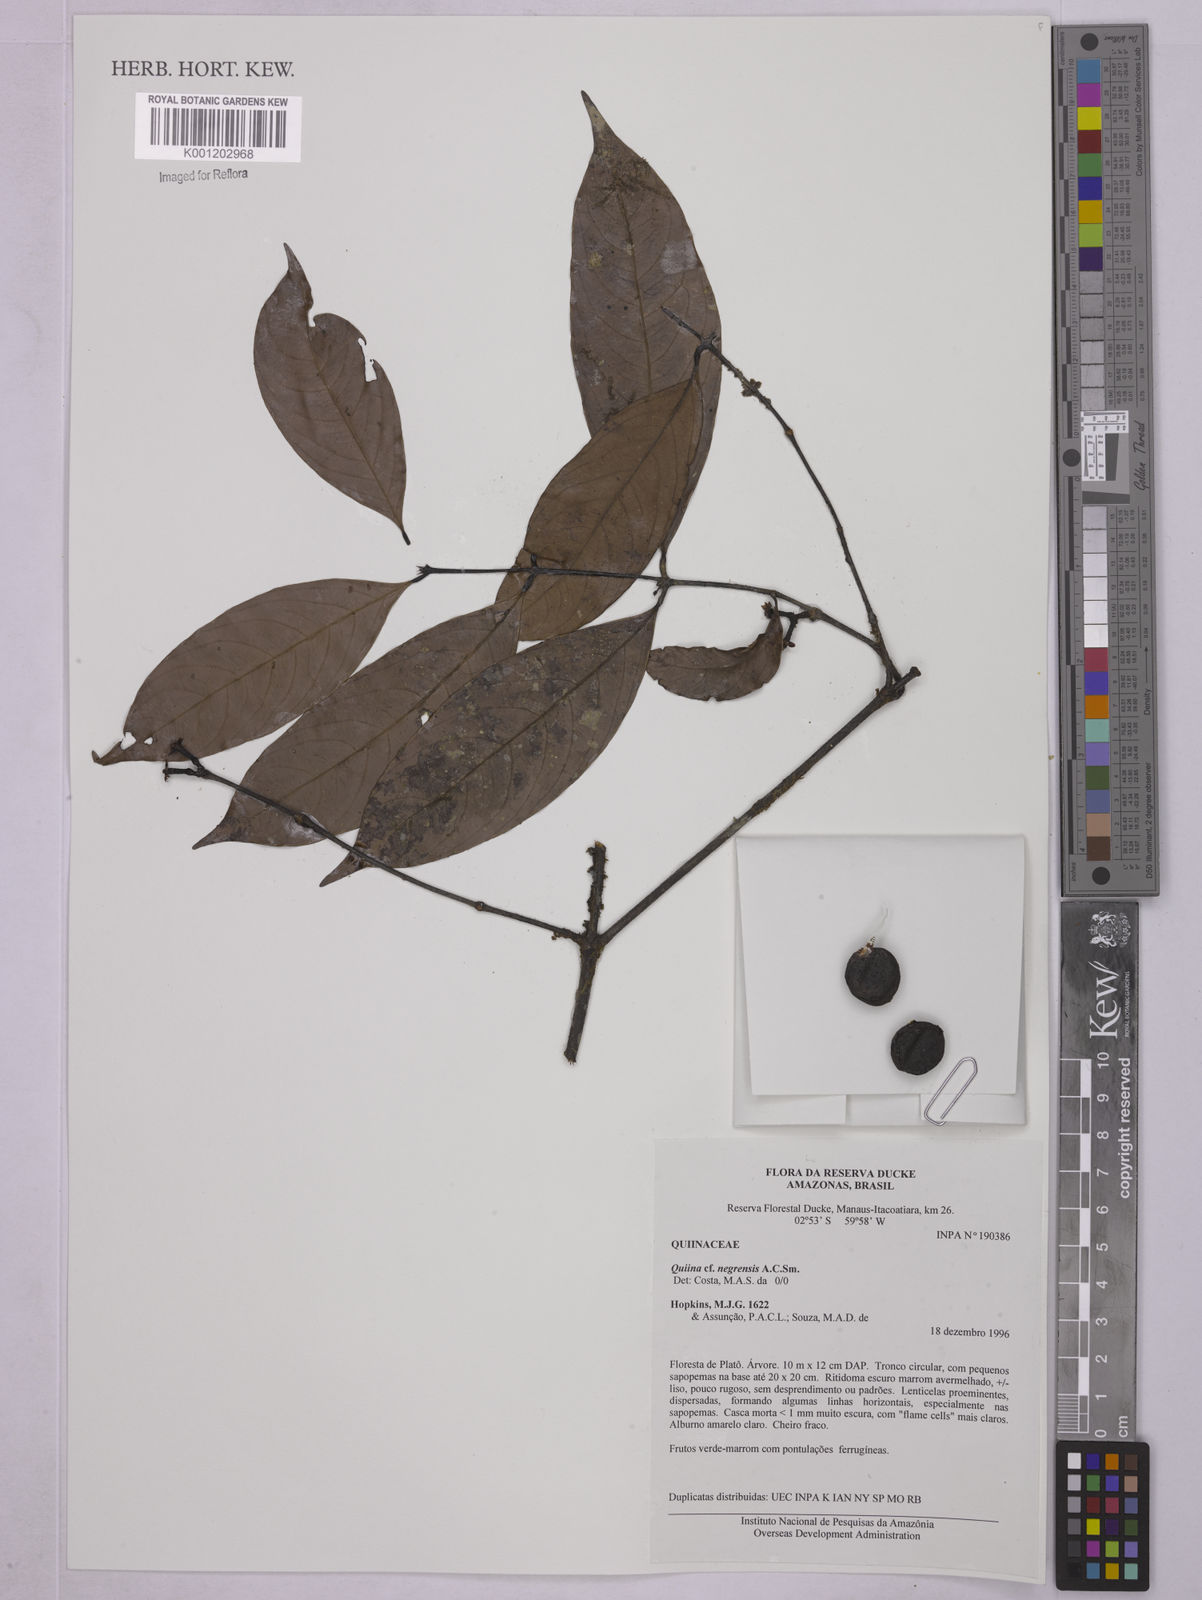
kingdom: Plantae
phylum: Tracheophyta
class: Magnoliopsida
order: Malpighiales
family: Quiinaceae
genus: Quiina
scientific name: Quiina negrensis
